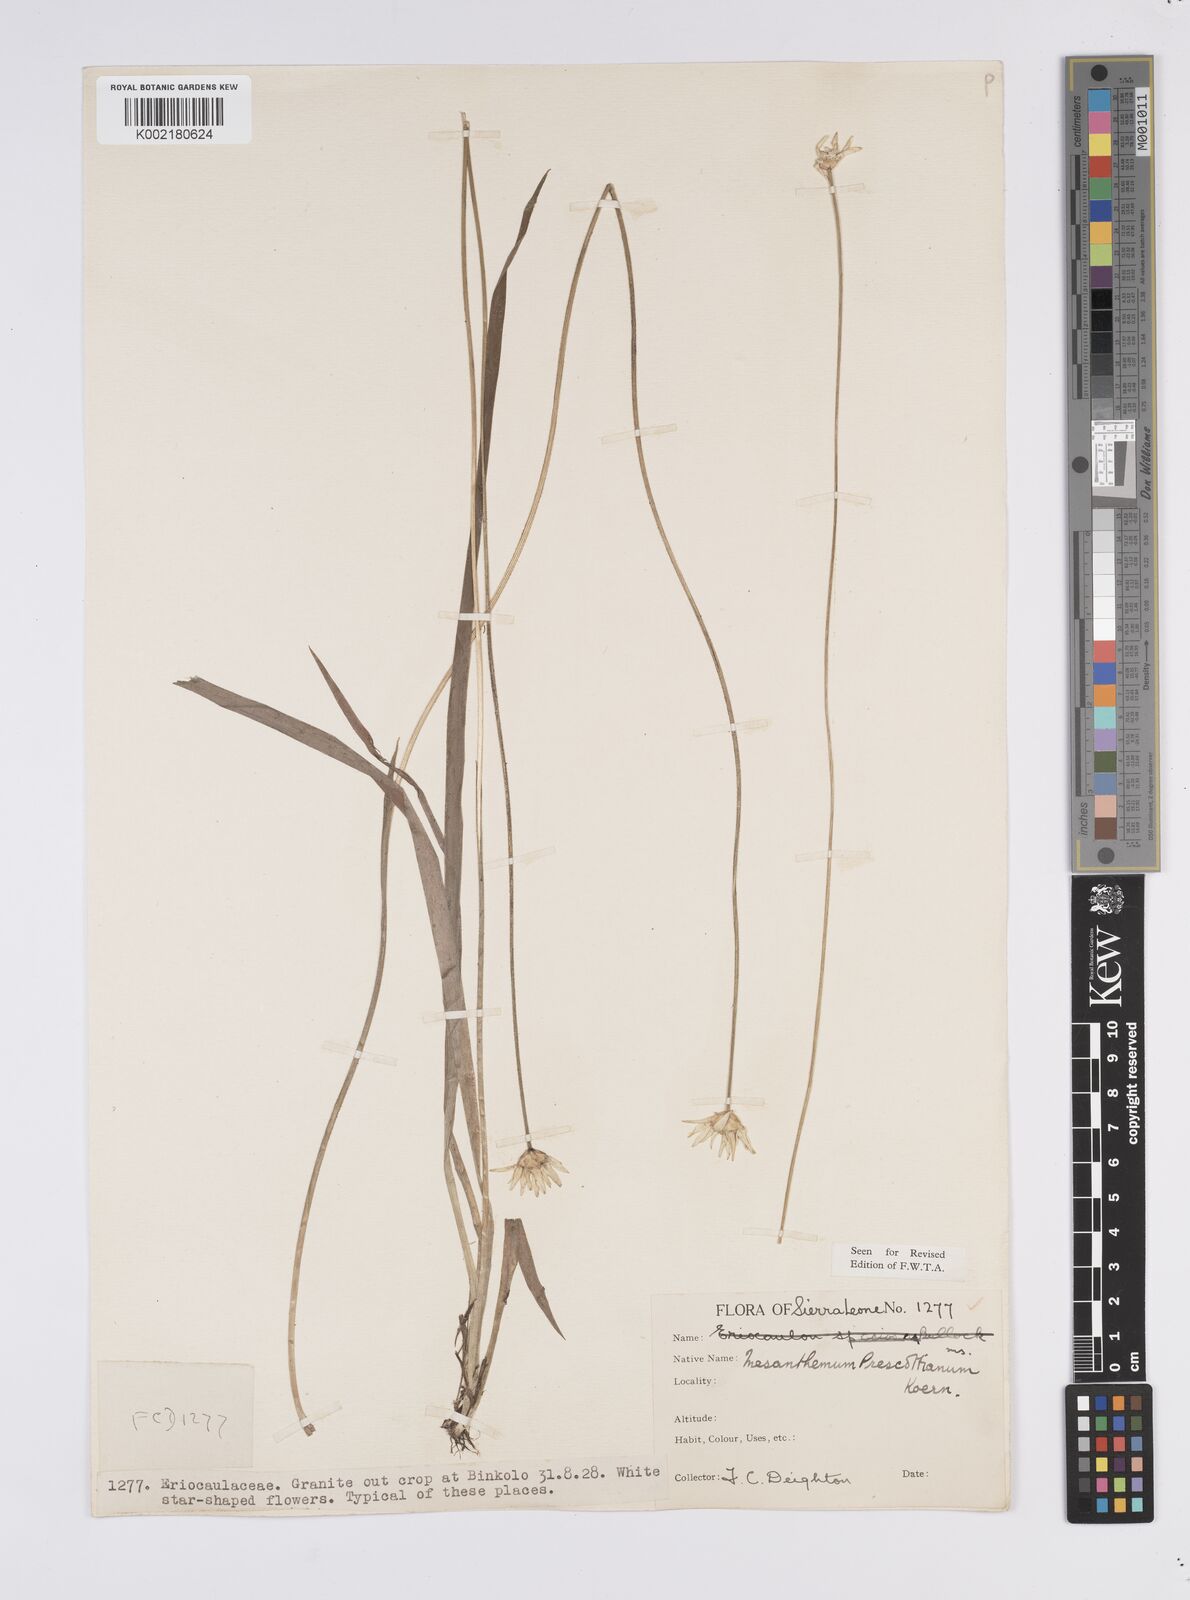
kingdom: Plantae
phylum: Tracheophyta
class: Liliopsida
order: Poales
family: Eriocaulaceae
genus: Mesanthemum
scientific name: Mesanthemum prescottianum
